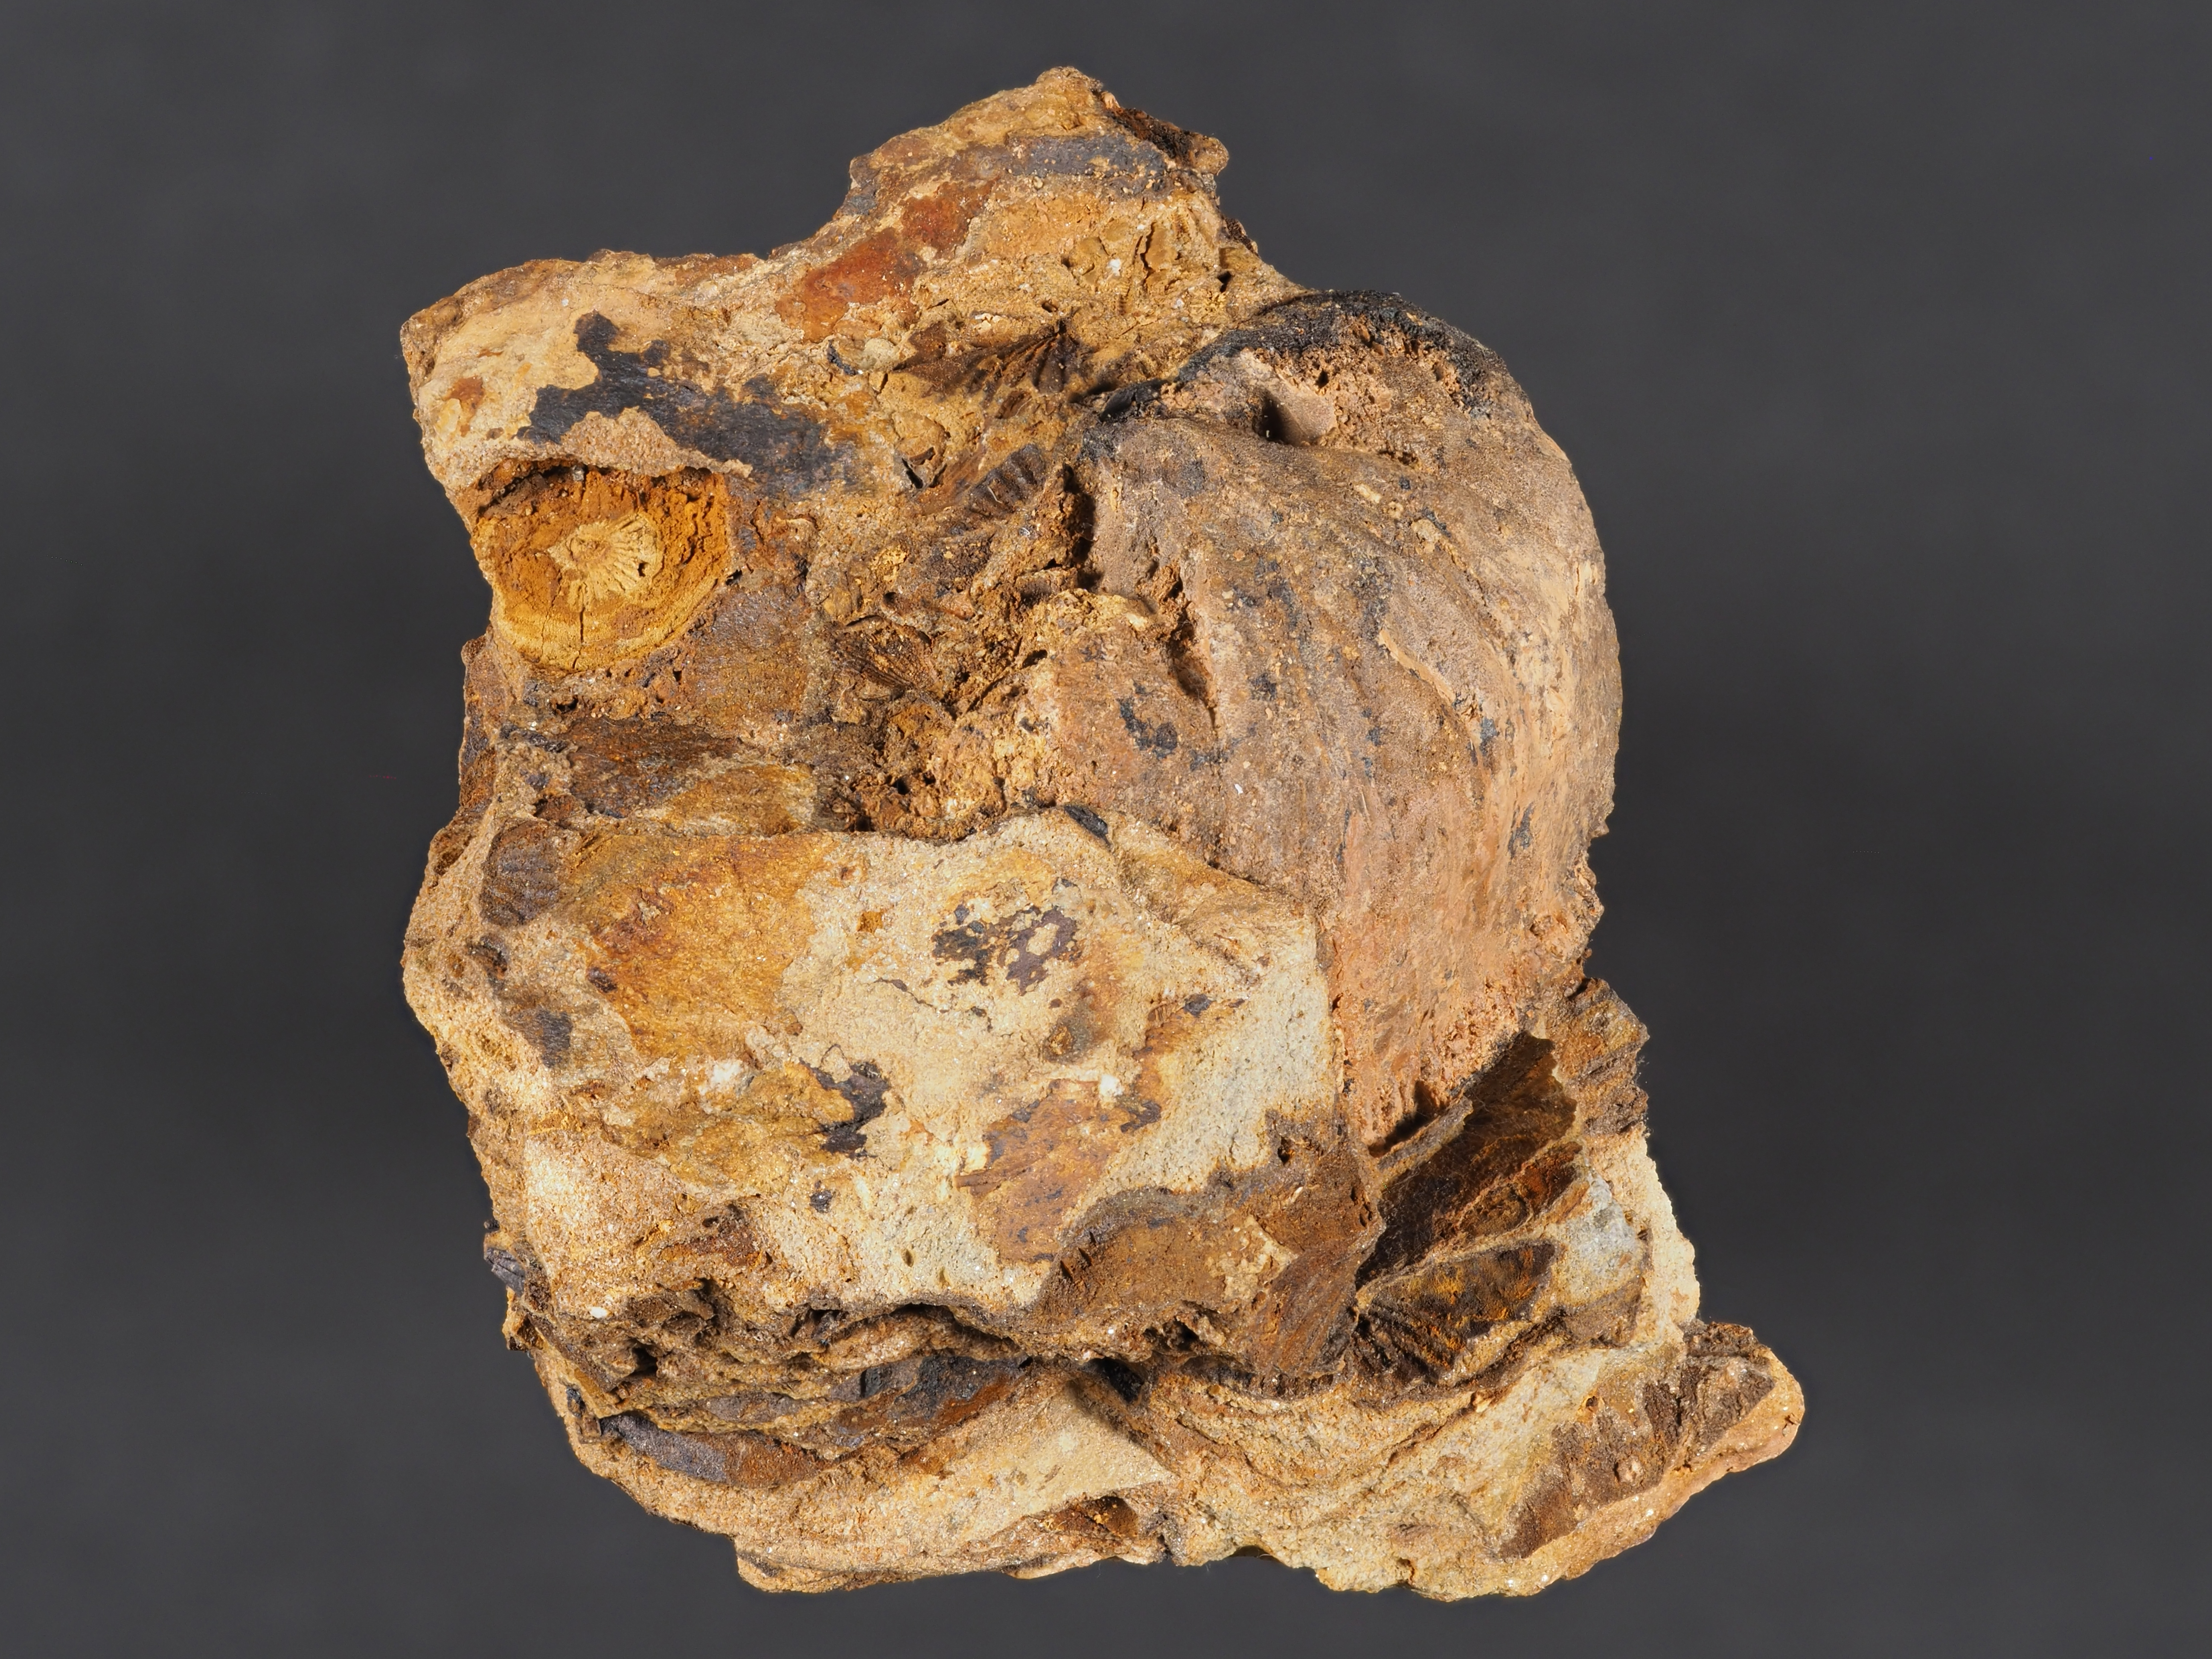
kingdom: Animalia
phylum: Brachiopoda
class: Rhynchonellata
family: Rhipidomellidae
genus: Platyorthis
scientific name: Platyorthis
